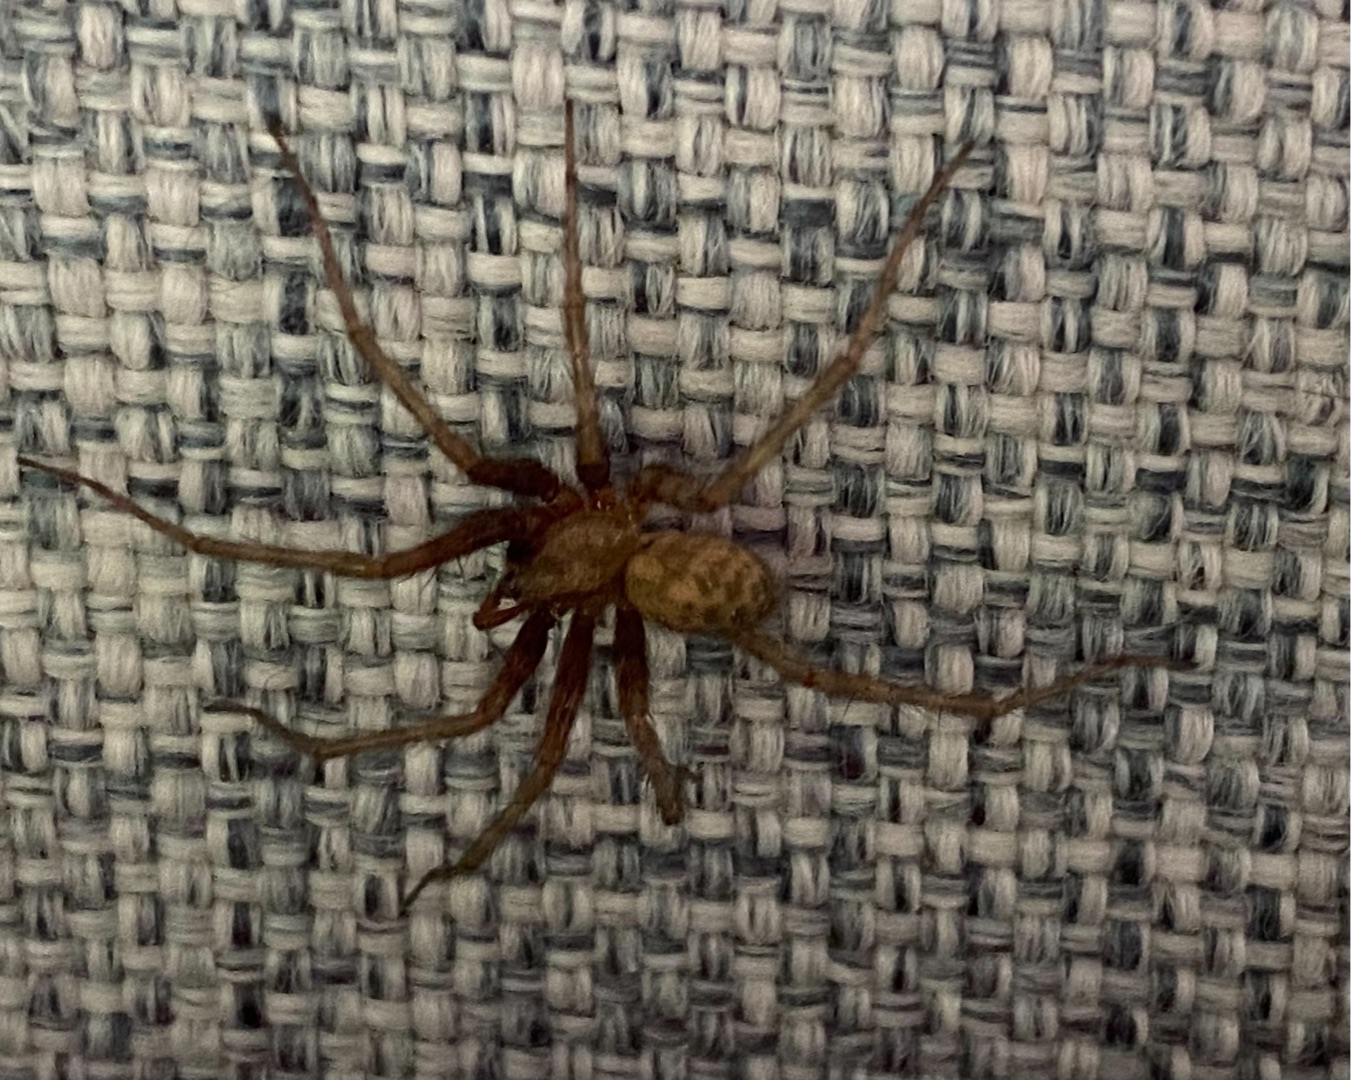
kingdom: Animalia
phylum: Arthropoda
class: Arachnida
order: Araneae
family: Agelenidae
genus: Tegenaria
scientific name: Tegenaria domestica
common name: Lille husedderkop
